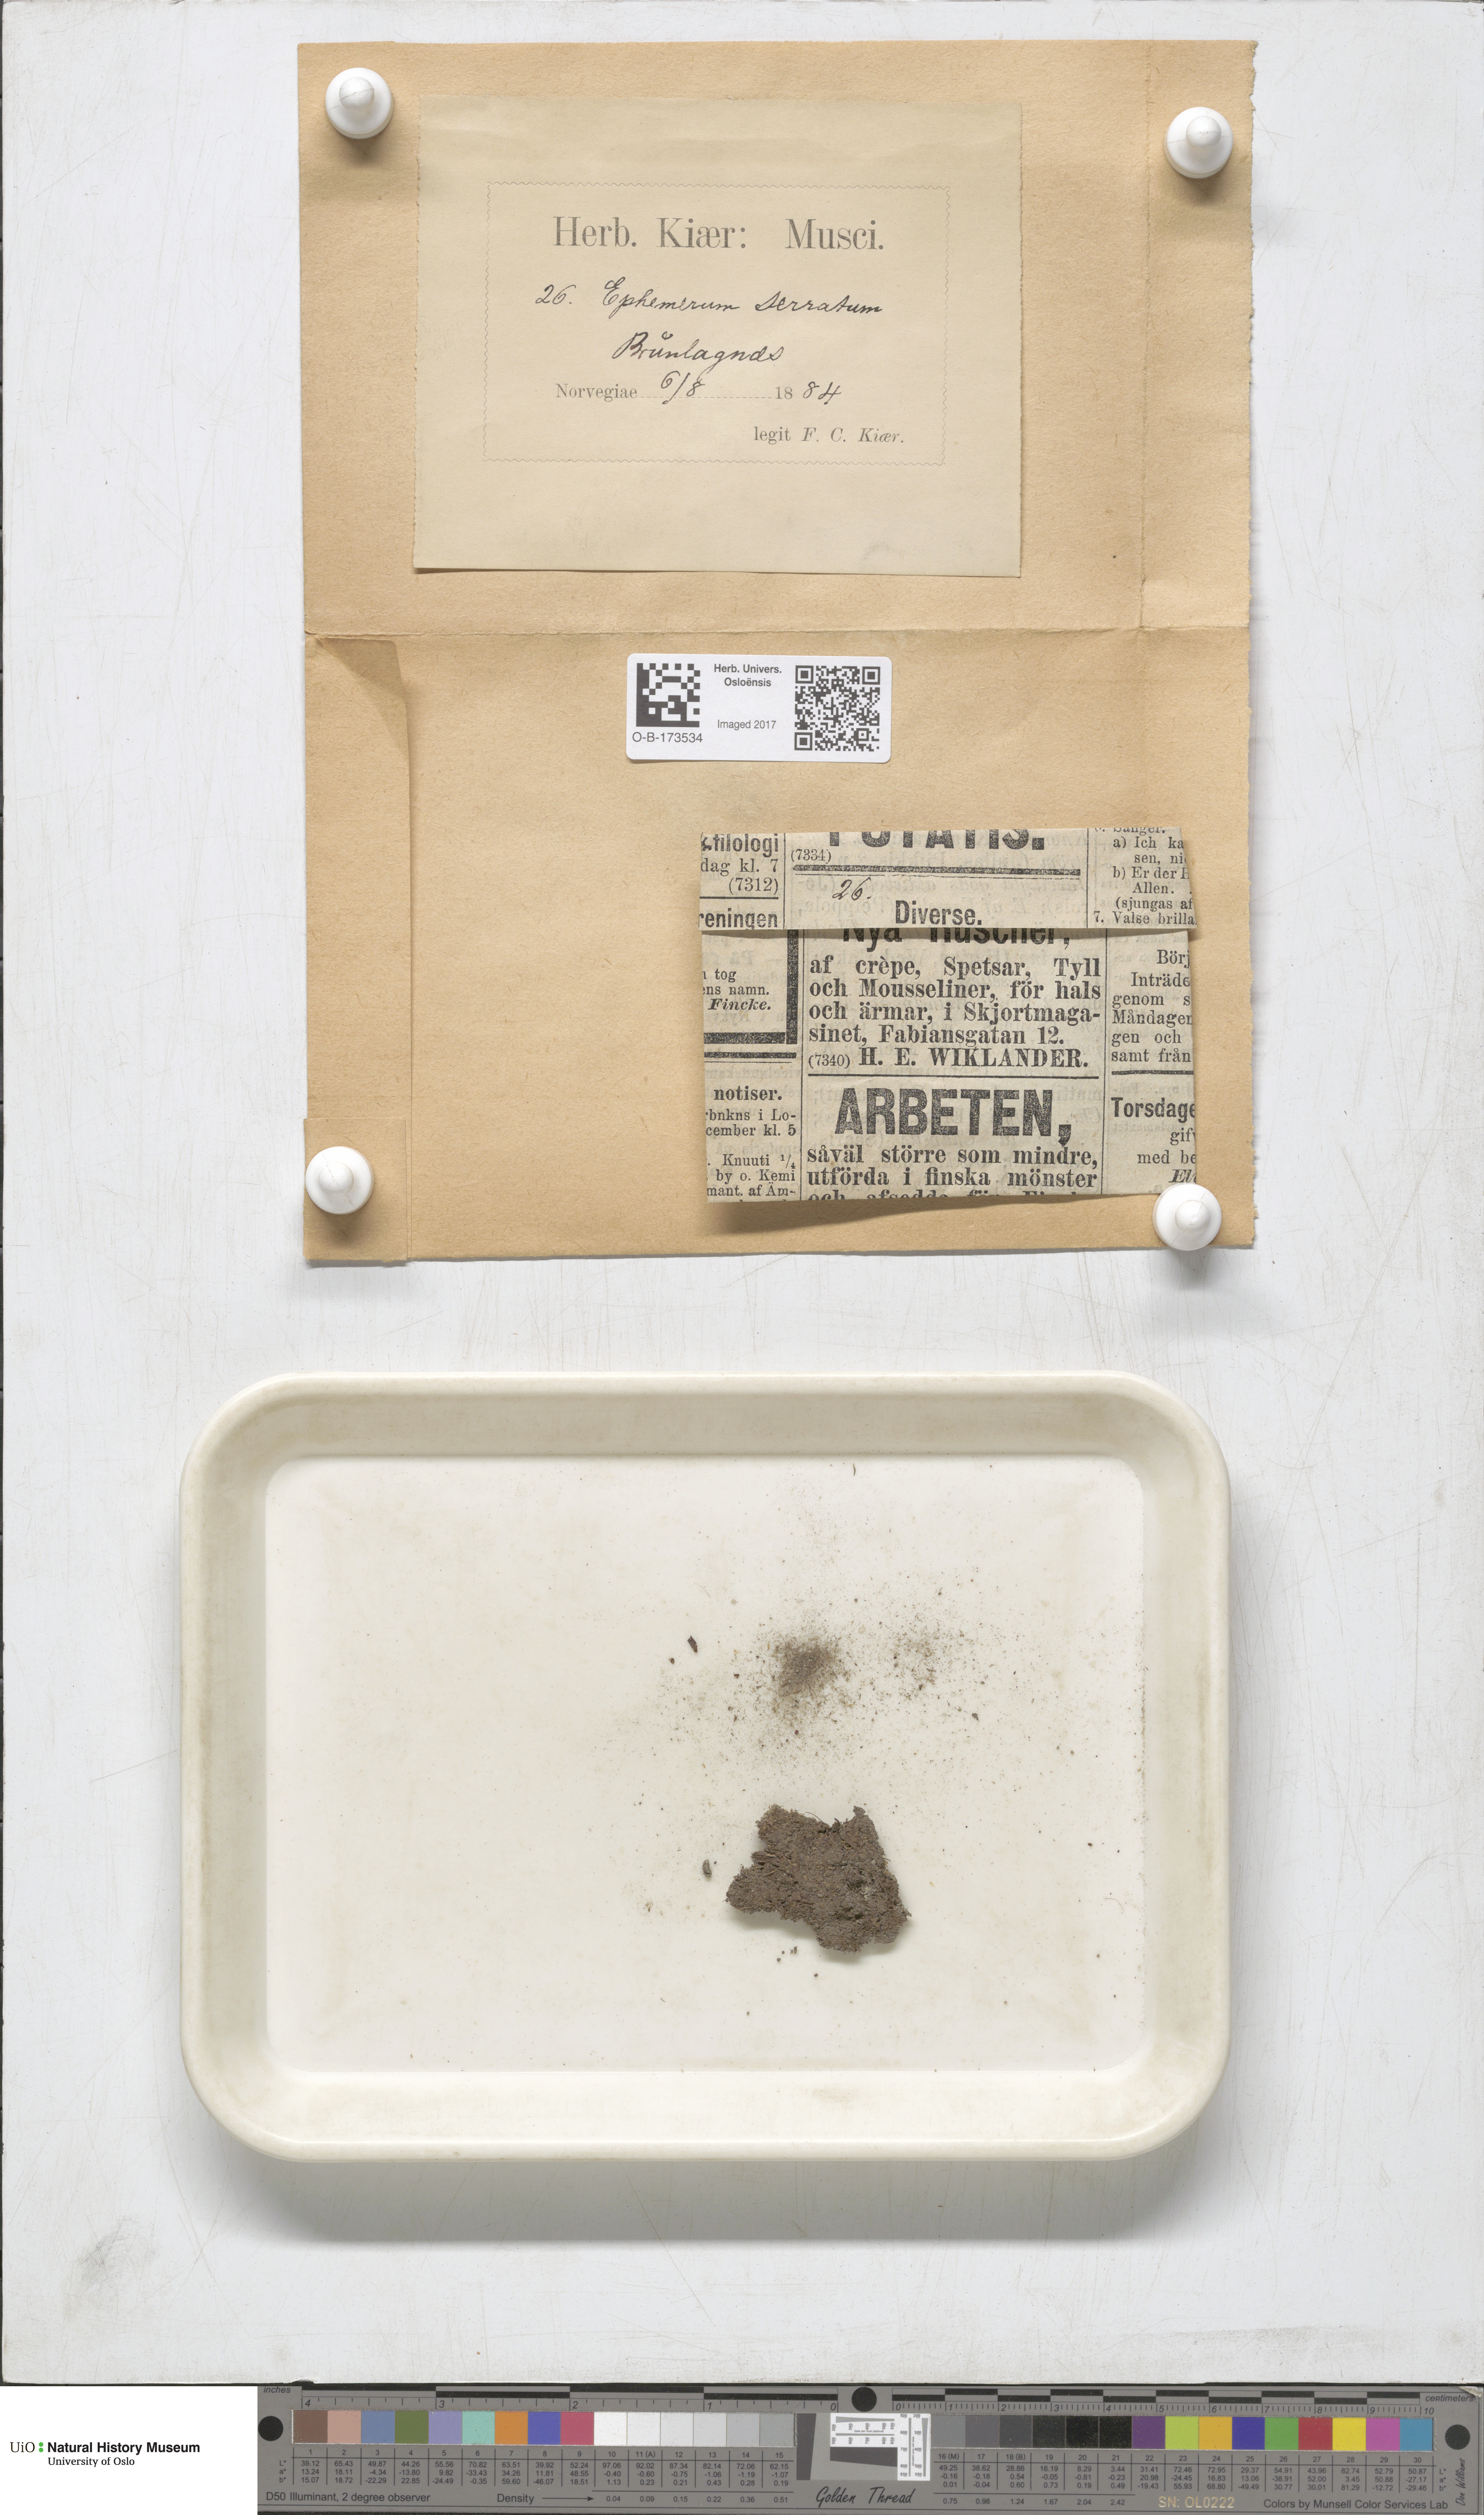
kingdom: Plantae
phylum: Bryophyta
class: Bryopsida
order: Pottiales
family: Ephemeraceae
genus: Ephemerum
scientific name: Ephemerum serratum
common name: Serrated earth moss
